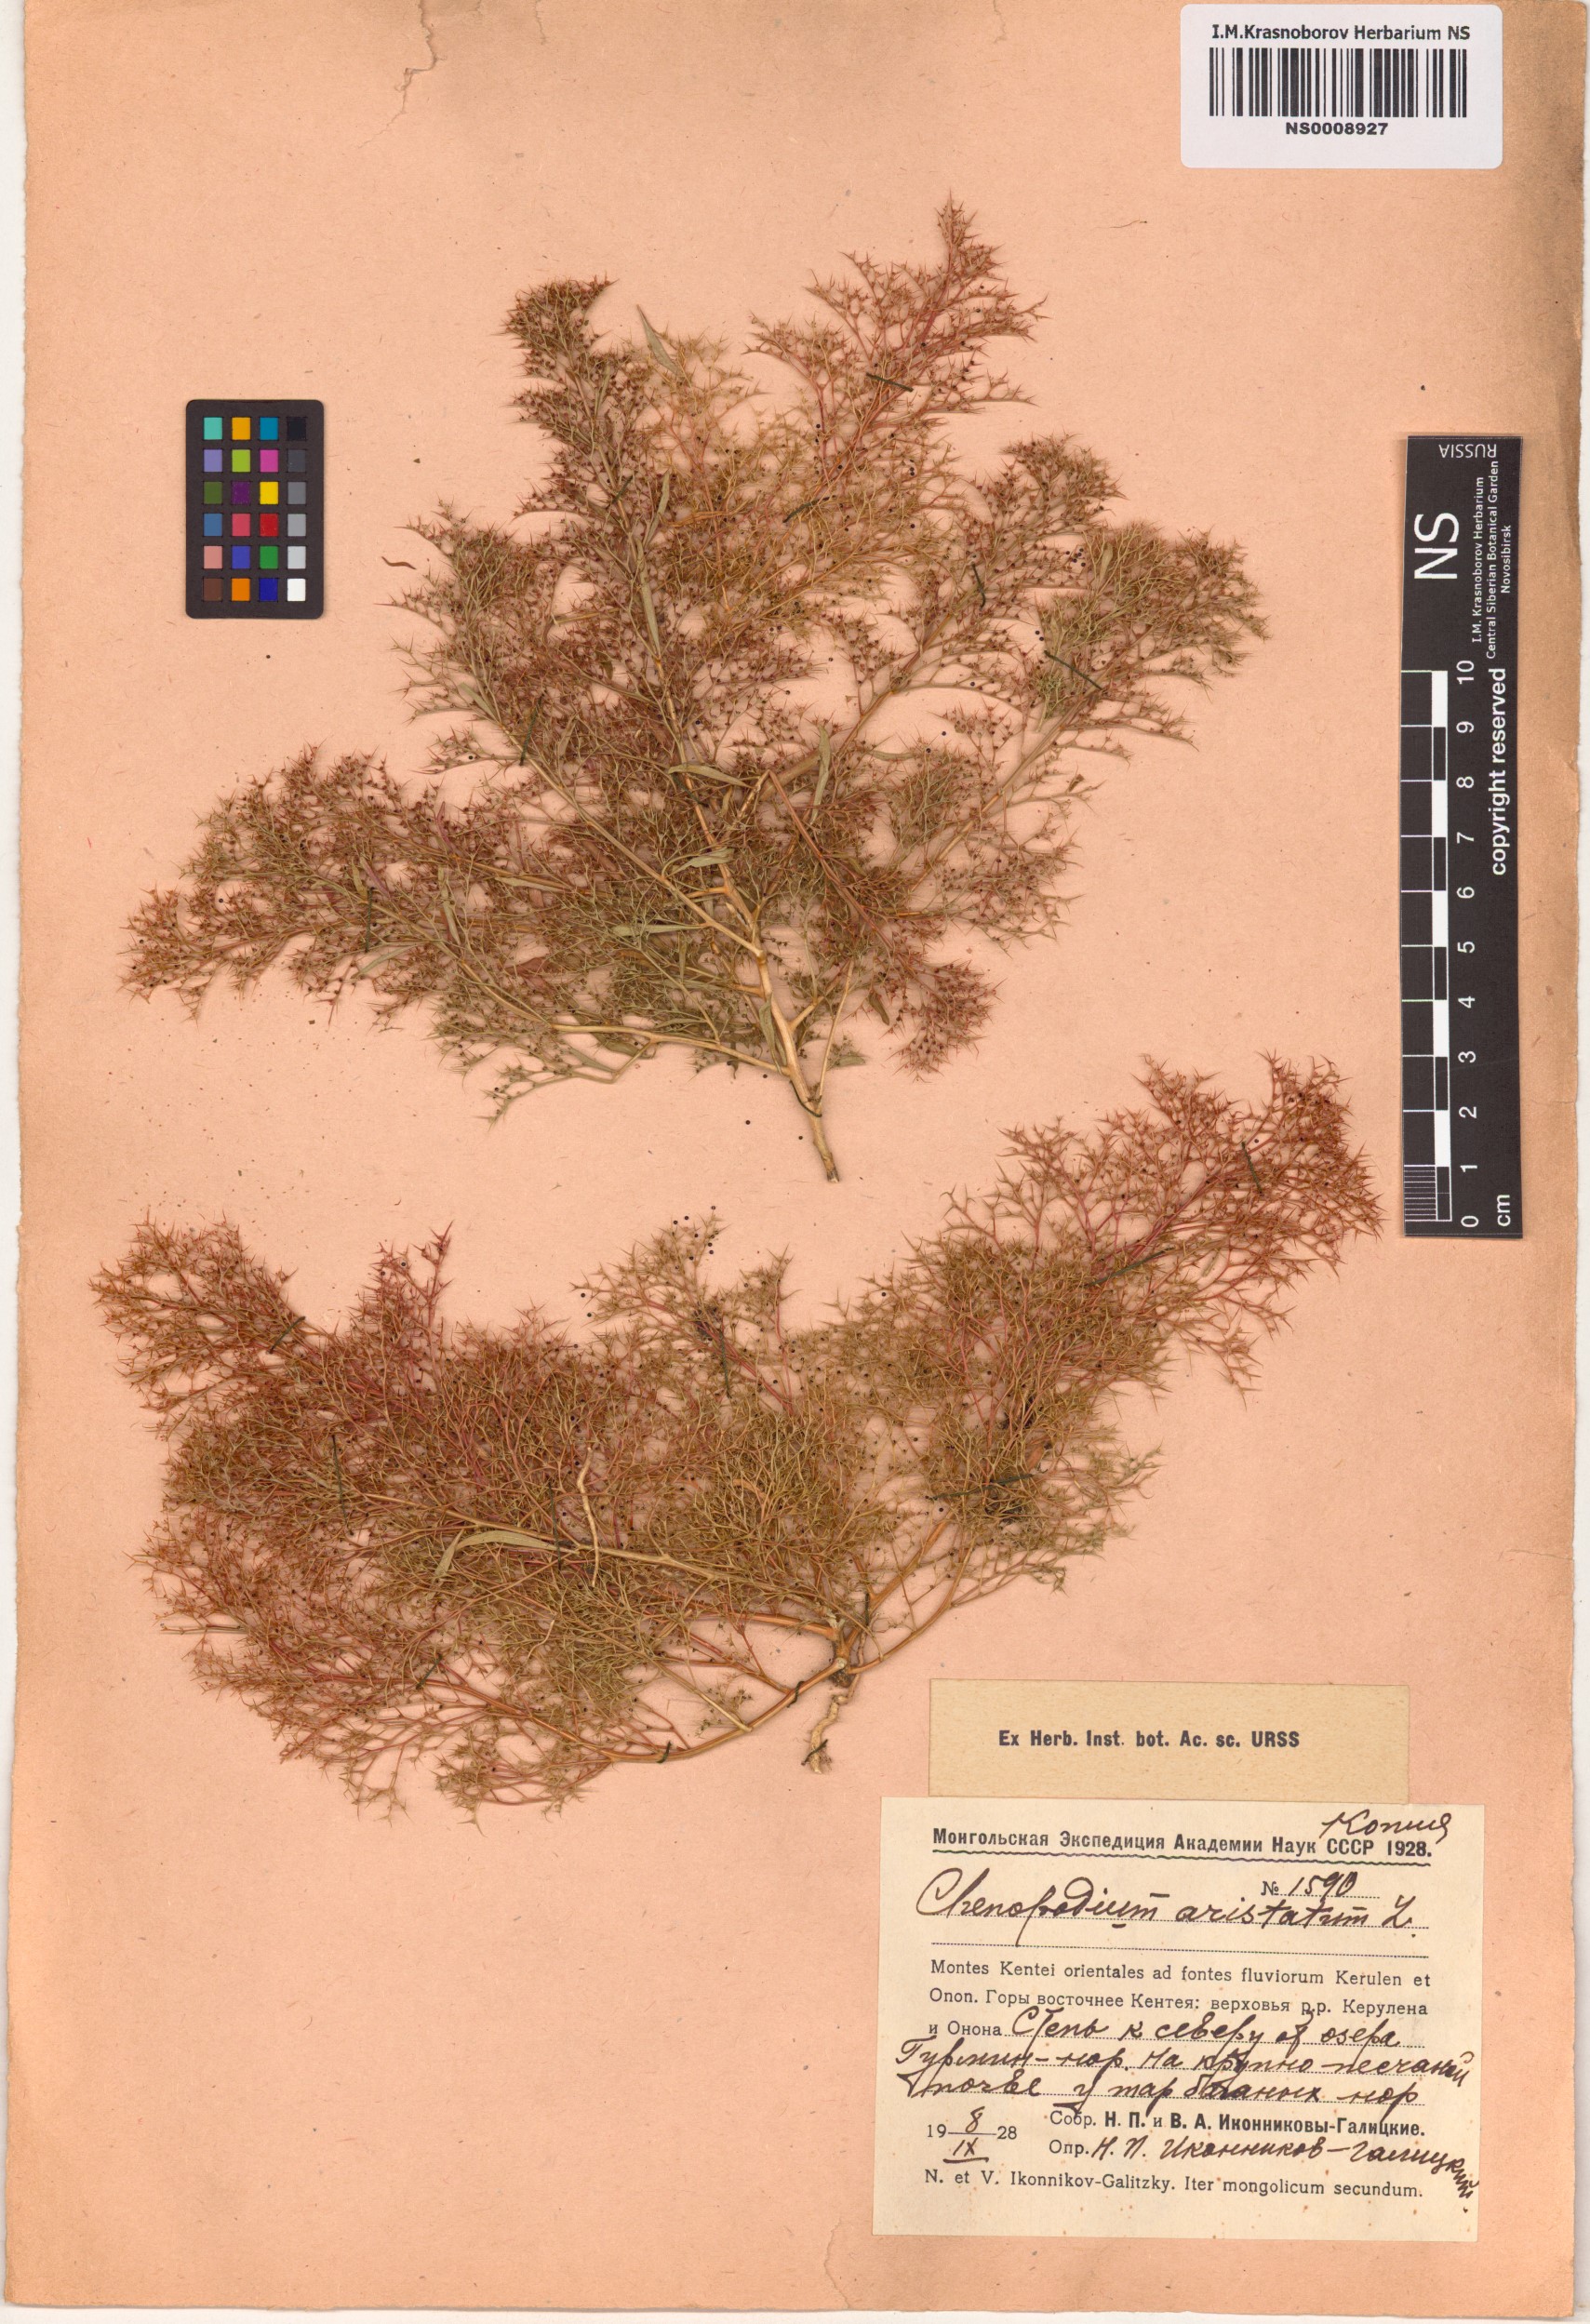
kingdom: Plantae
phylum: Tracheophyta
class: Magnoliopsida
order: Caryophyllales
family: Amaranthaceae
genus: Teloxys
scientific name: Teloxys aristata
